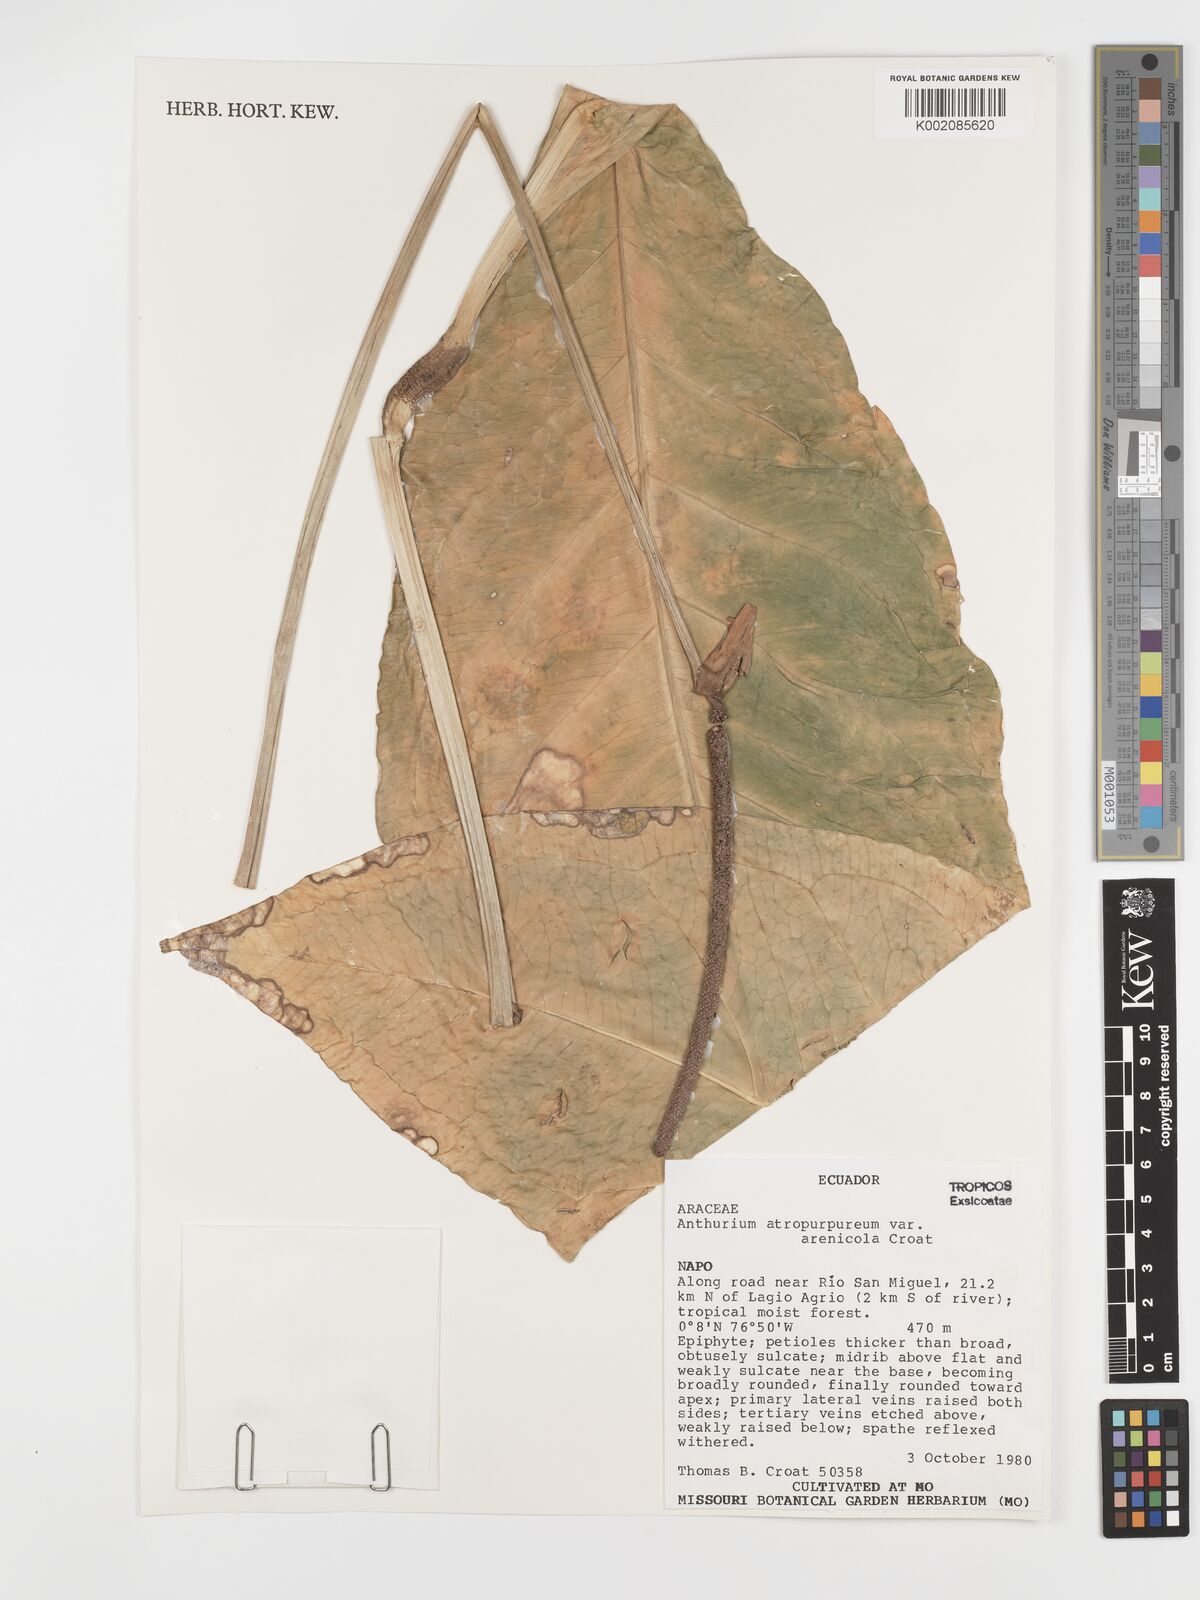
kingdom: Plantae
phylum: Tracheophyta
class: Liliopsida
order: Alismatales
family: Araceae
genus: Anthurium
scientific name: Anthurium atropurpureum
